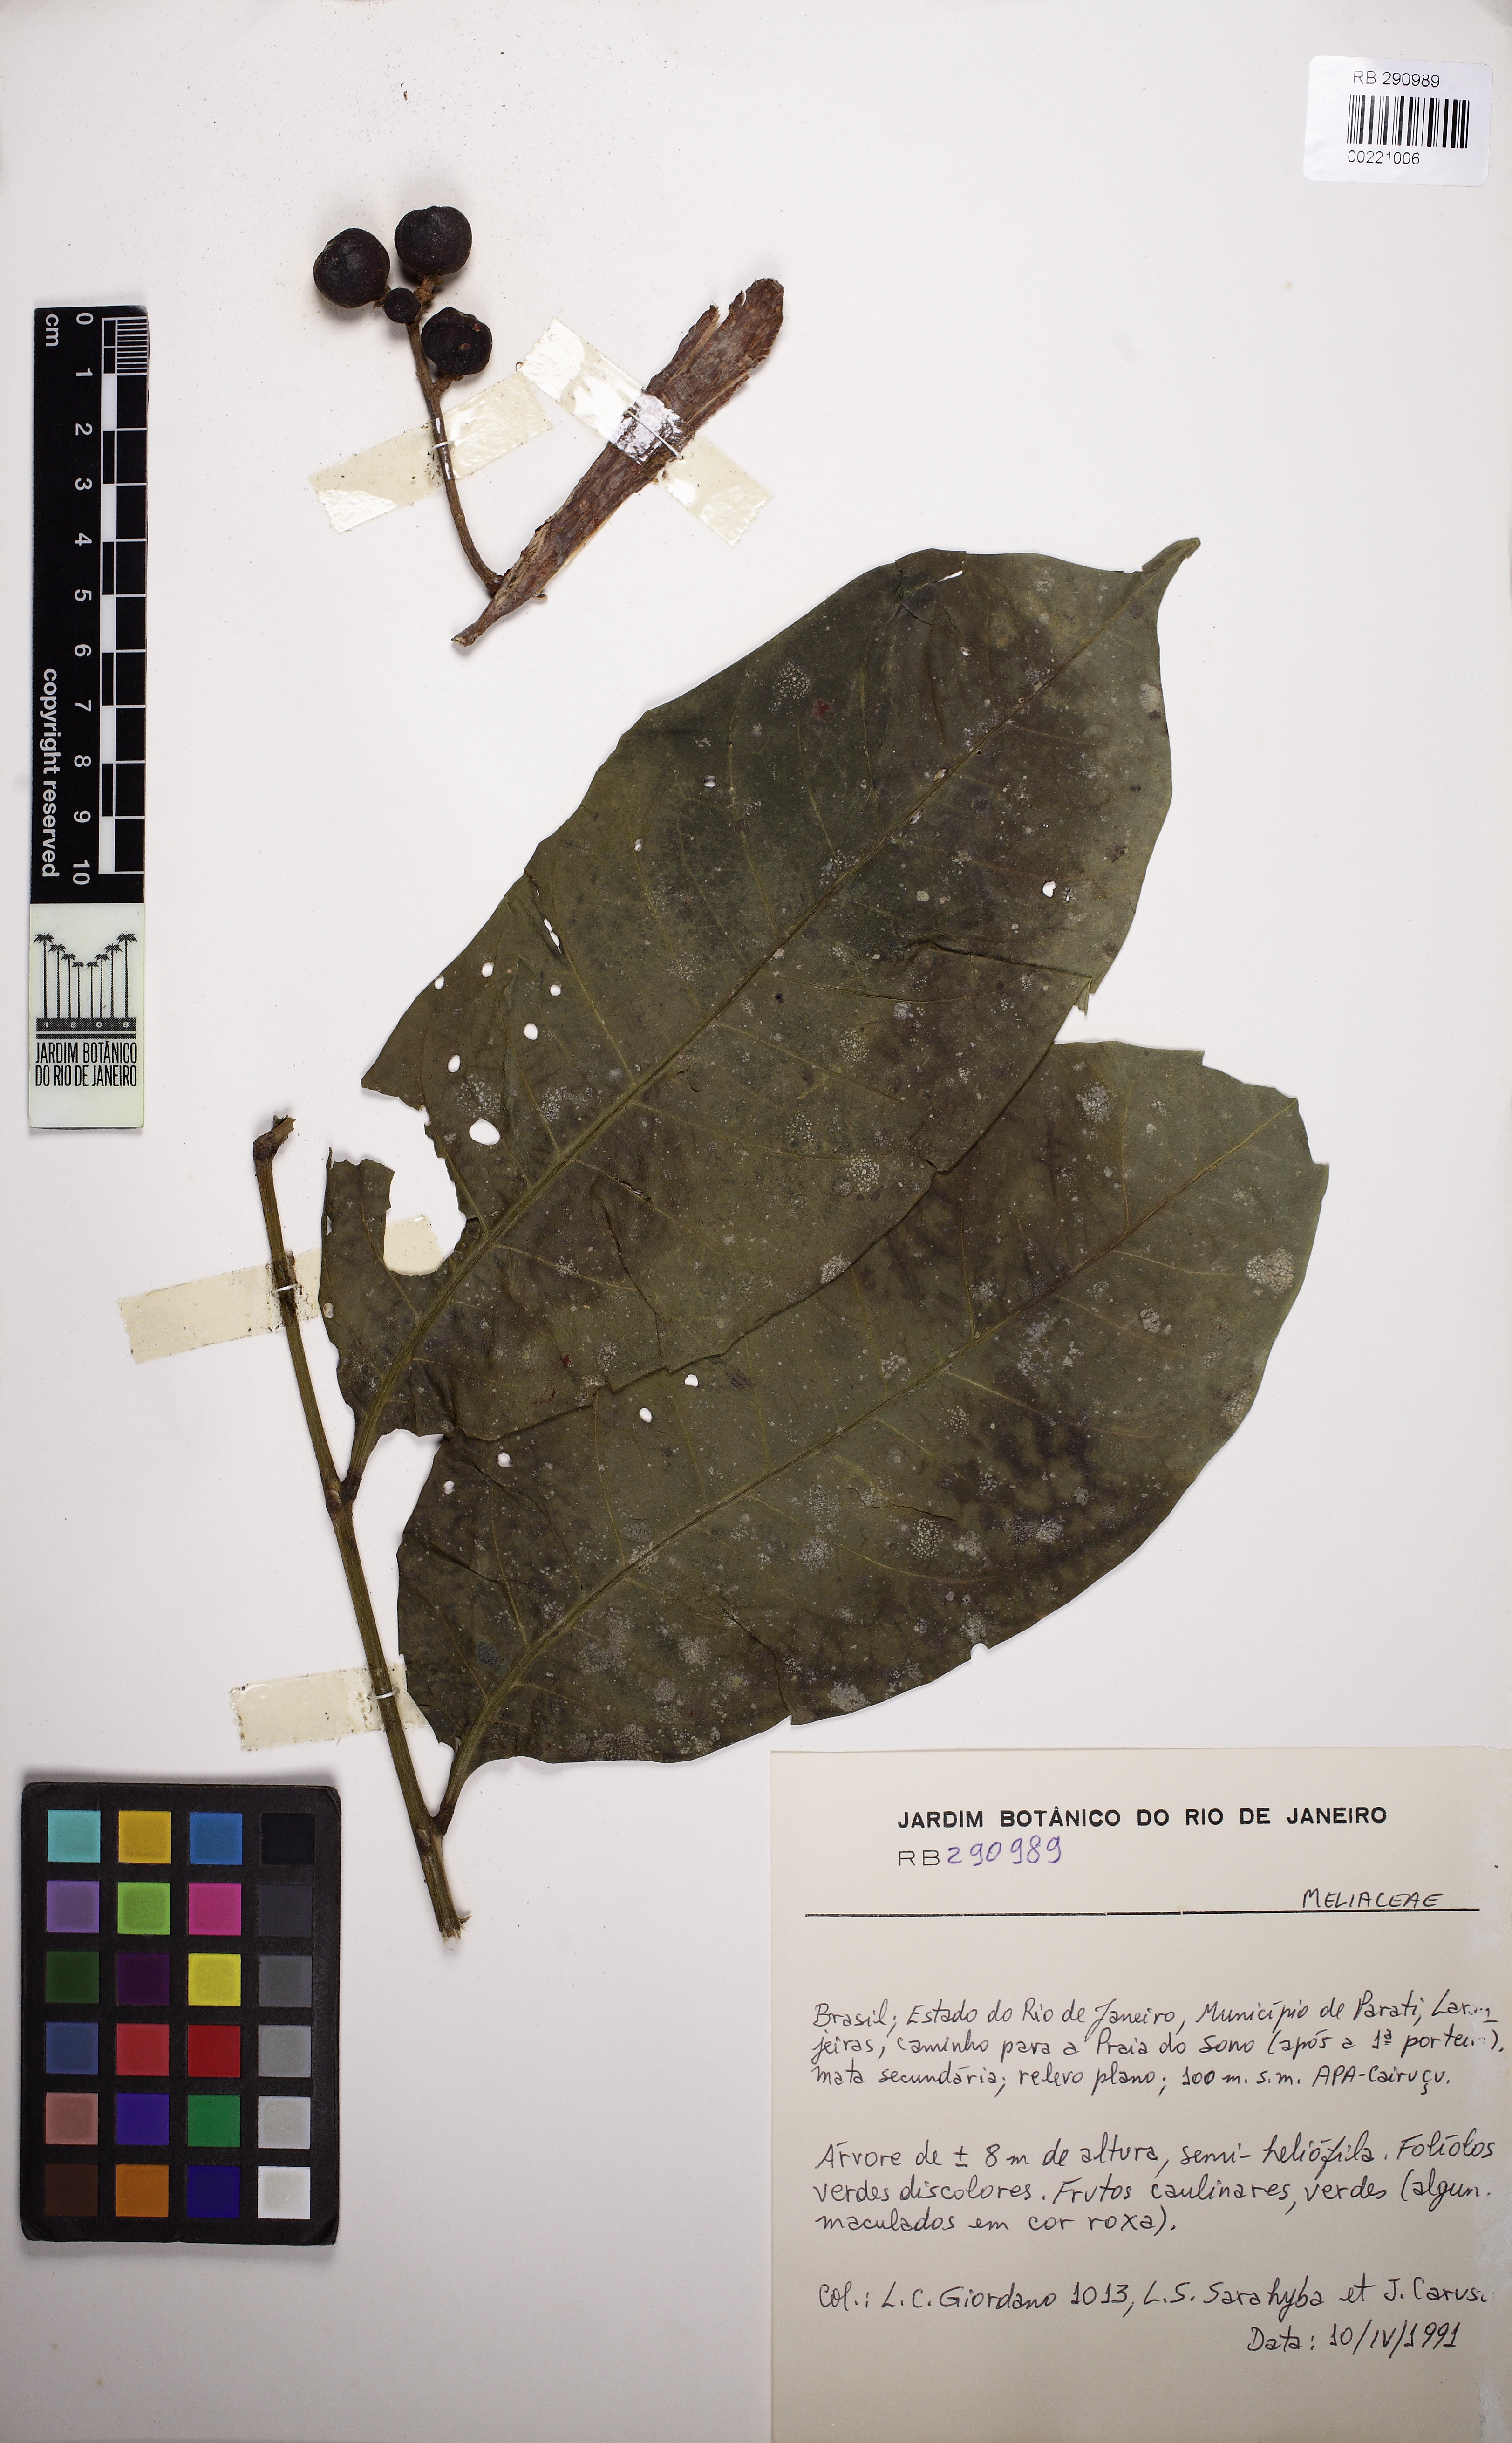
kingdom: Plantae
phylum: Tracheophyta
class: Magnoliopsida
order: Sapindales
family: Meliaceae
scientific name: Meliaceae
